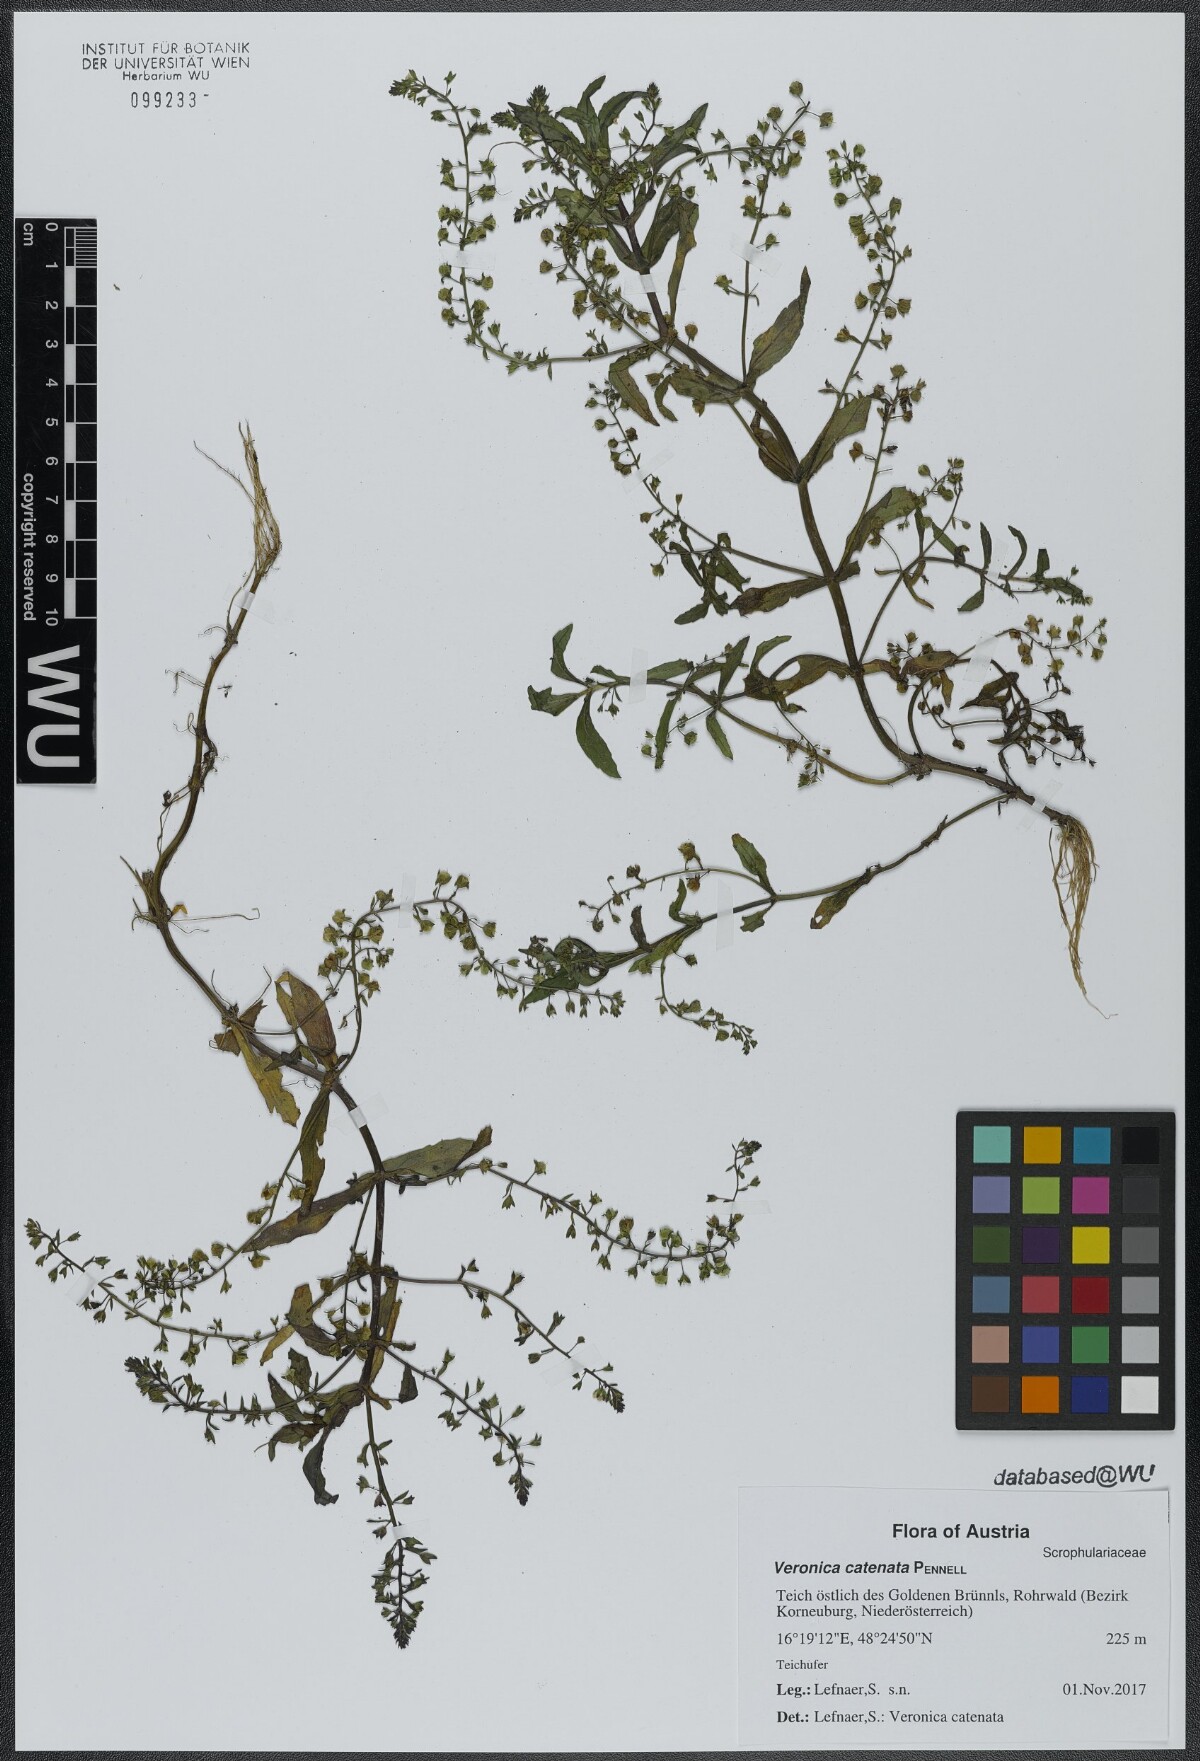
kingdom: Plantae
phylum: Tracheophyta
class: Magnoliopsida
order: Lamiales
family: Plantaginaceae
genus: Veronica
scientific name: Veronica catenata
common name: Pink water-speedwell
